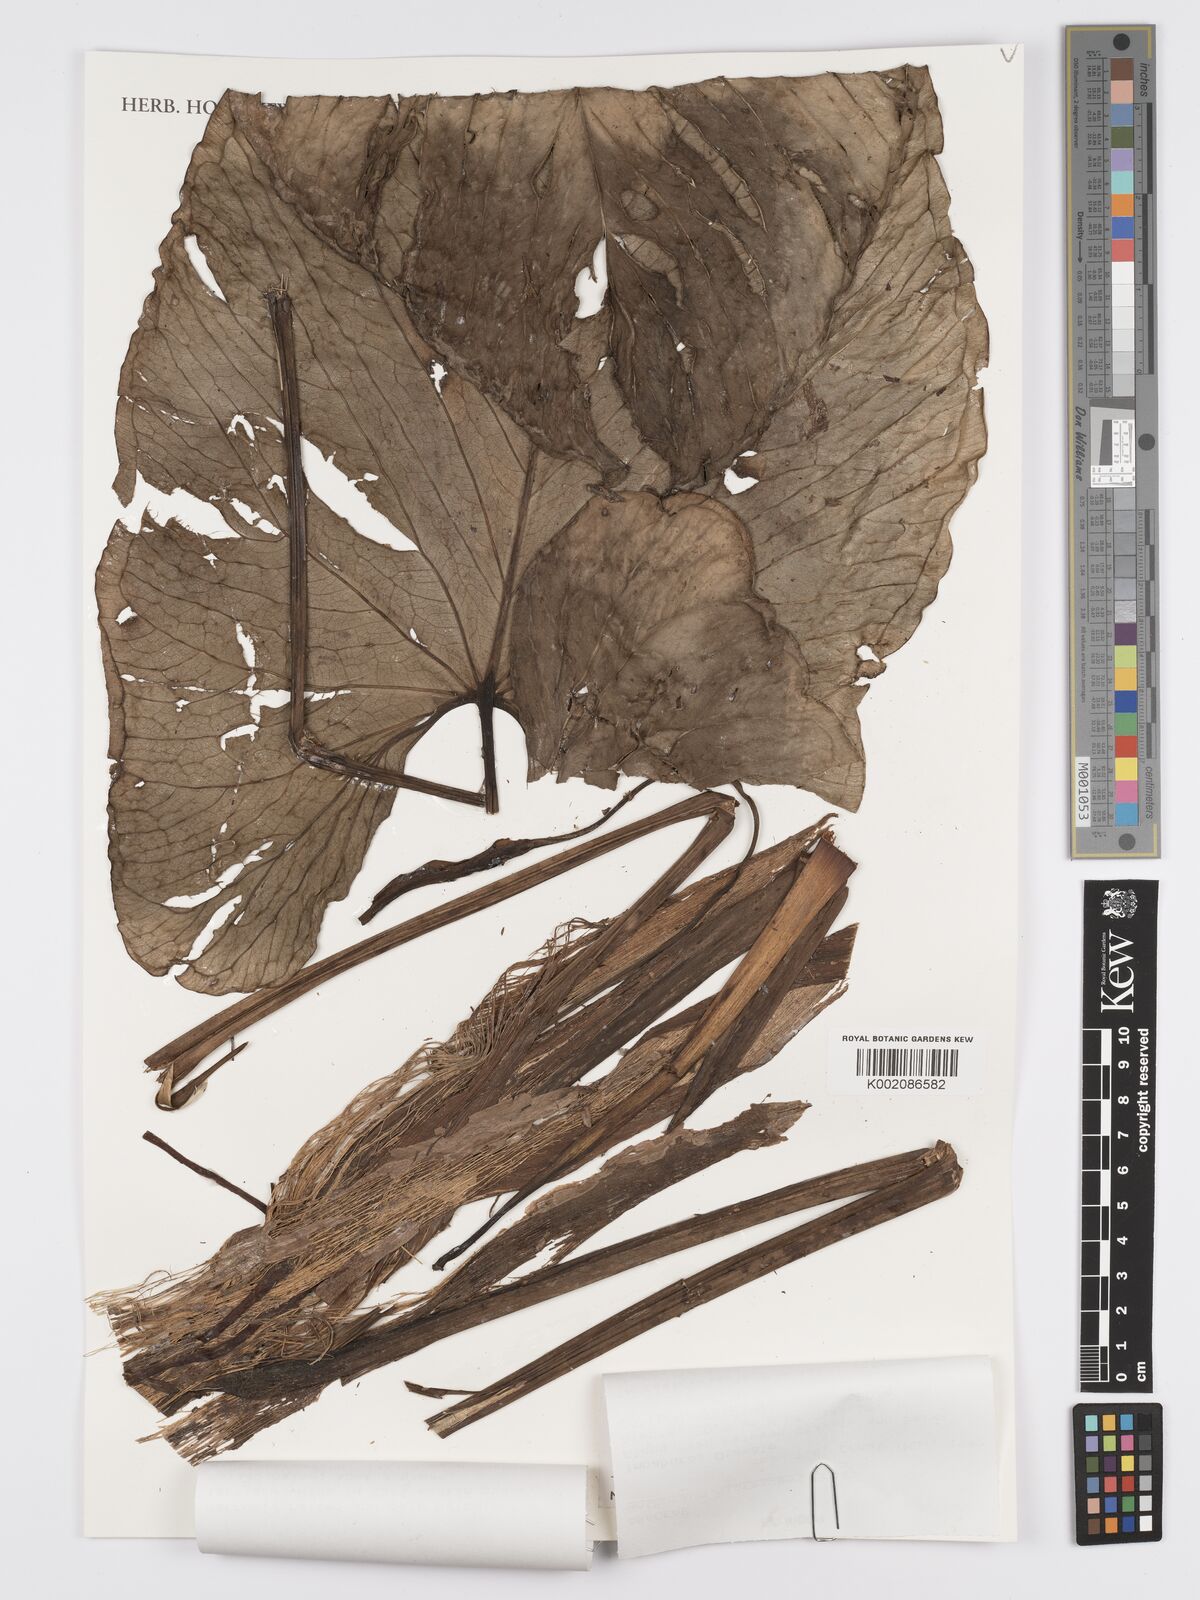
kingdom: Plantae
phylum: Tracheophyta
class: Liliopsida
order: Alismatales
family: Araceae
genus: Anthurium
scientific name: Anthurium nigrescens
